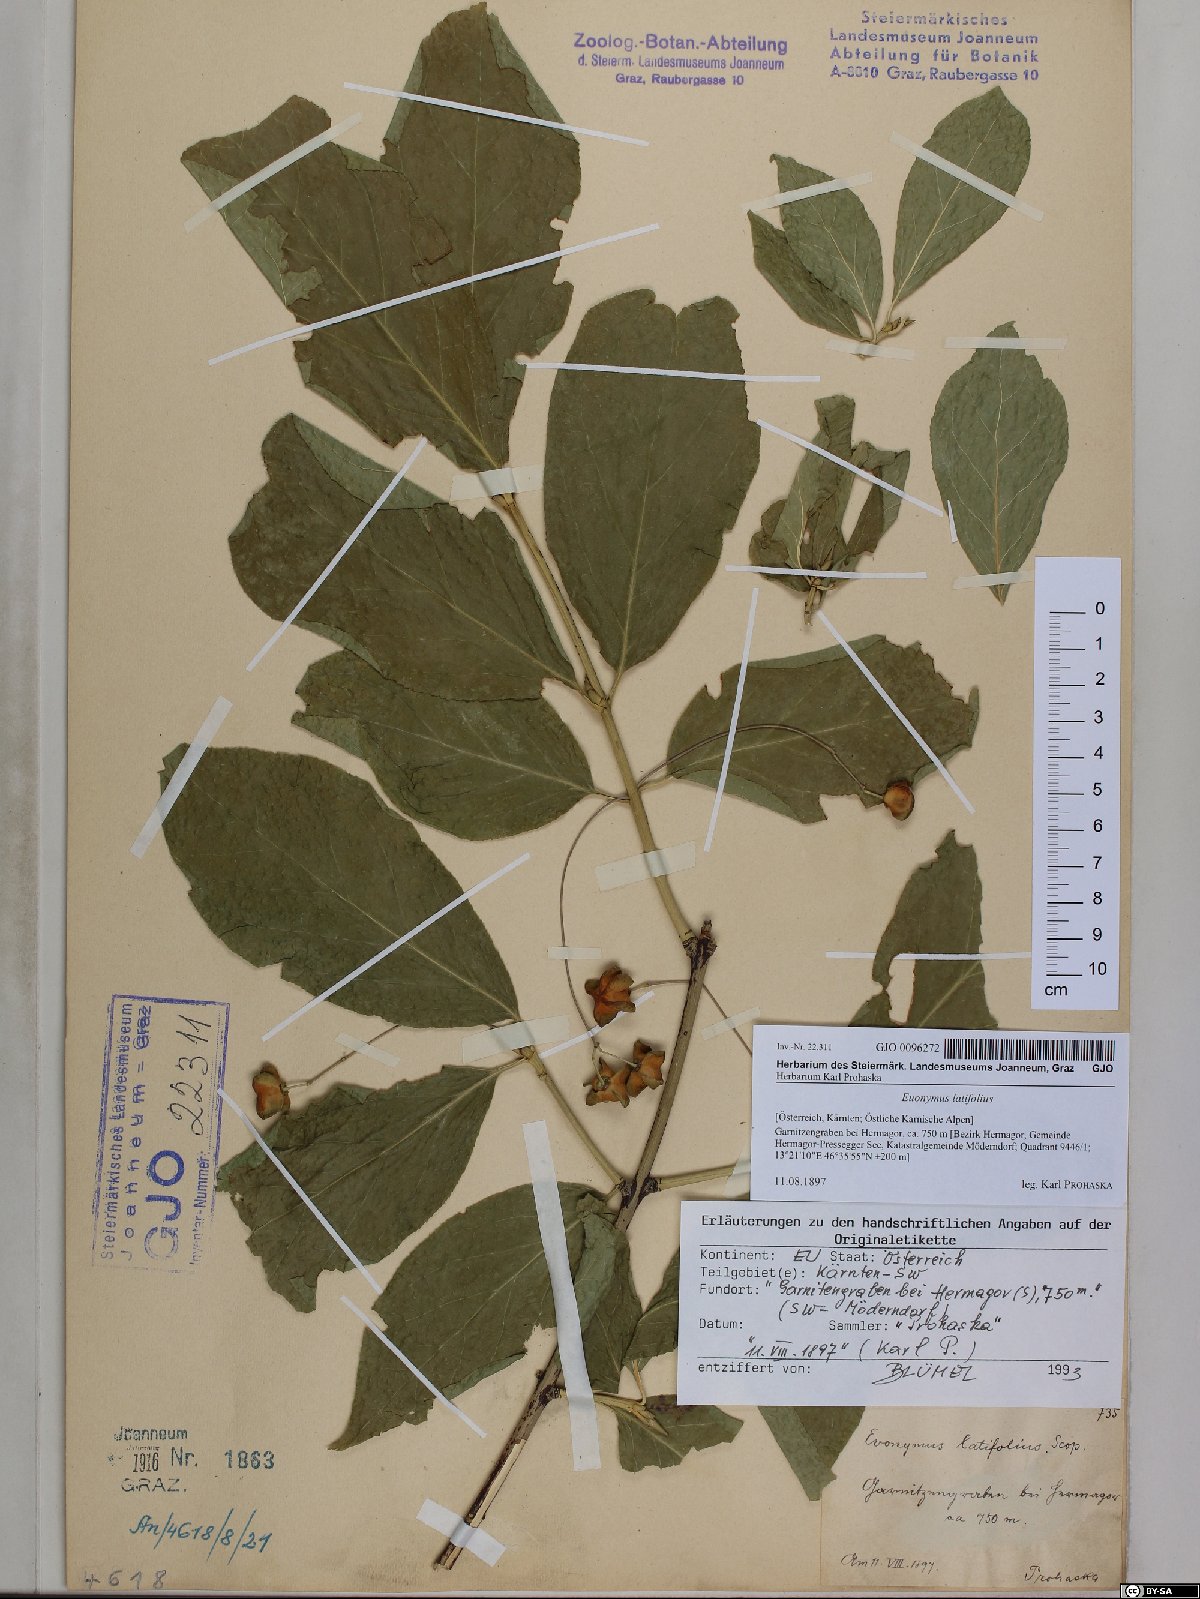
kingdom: Plantae
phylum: Tracheophyta
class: Magnoliopsida
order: Celastrales
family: Celastraceae
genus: Euonymus
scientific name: Euonymus latifolius
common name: Large-leaved spindle
